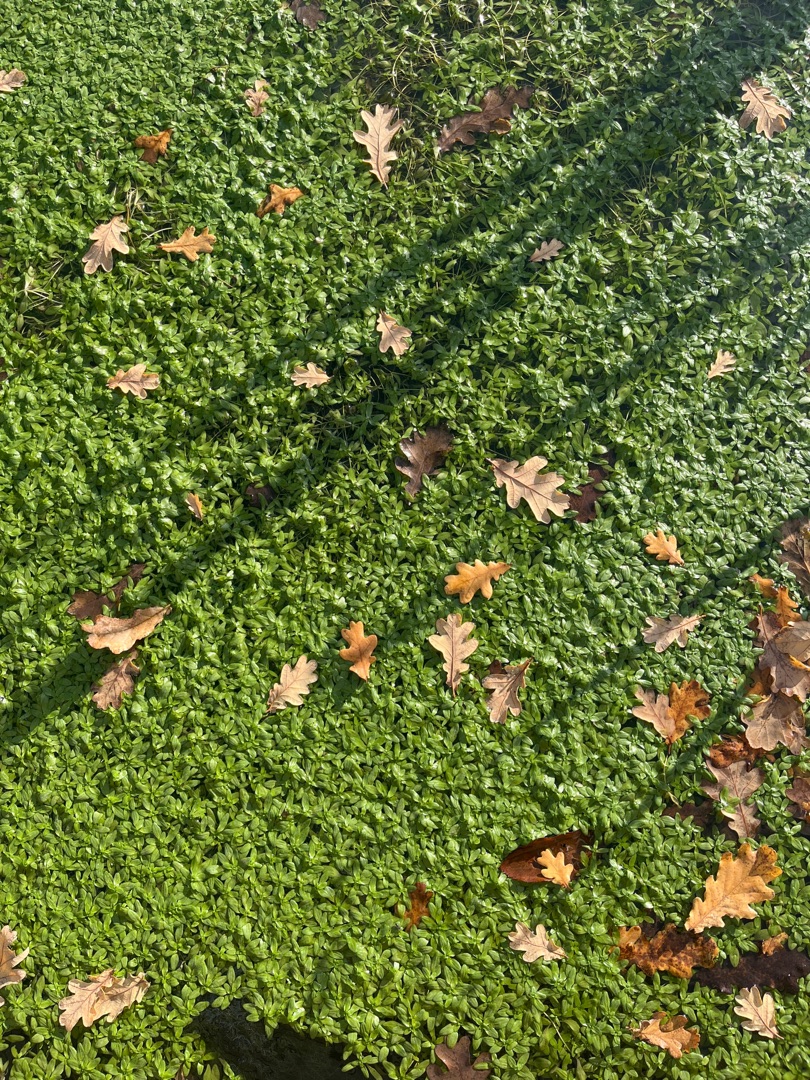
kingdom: Plantae
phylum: Tracheophyta
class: Magnoliopsida
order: Lamiales
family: Plantaginaceae
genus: Callitriche
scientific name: Callitriche
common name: Vandstjerneslægten
